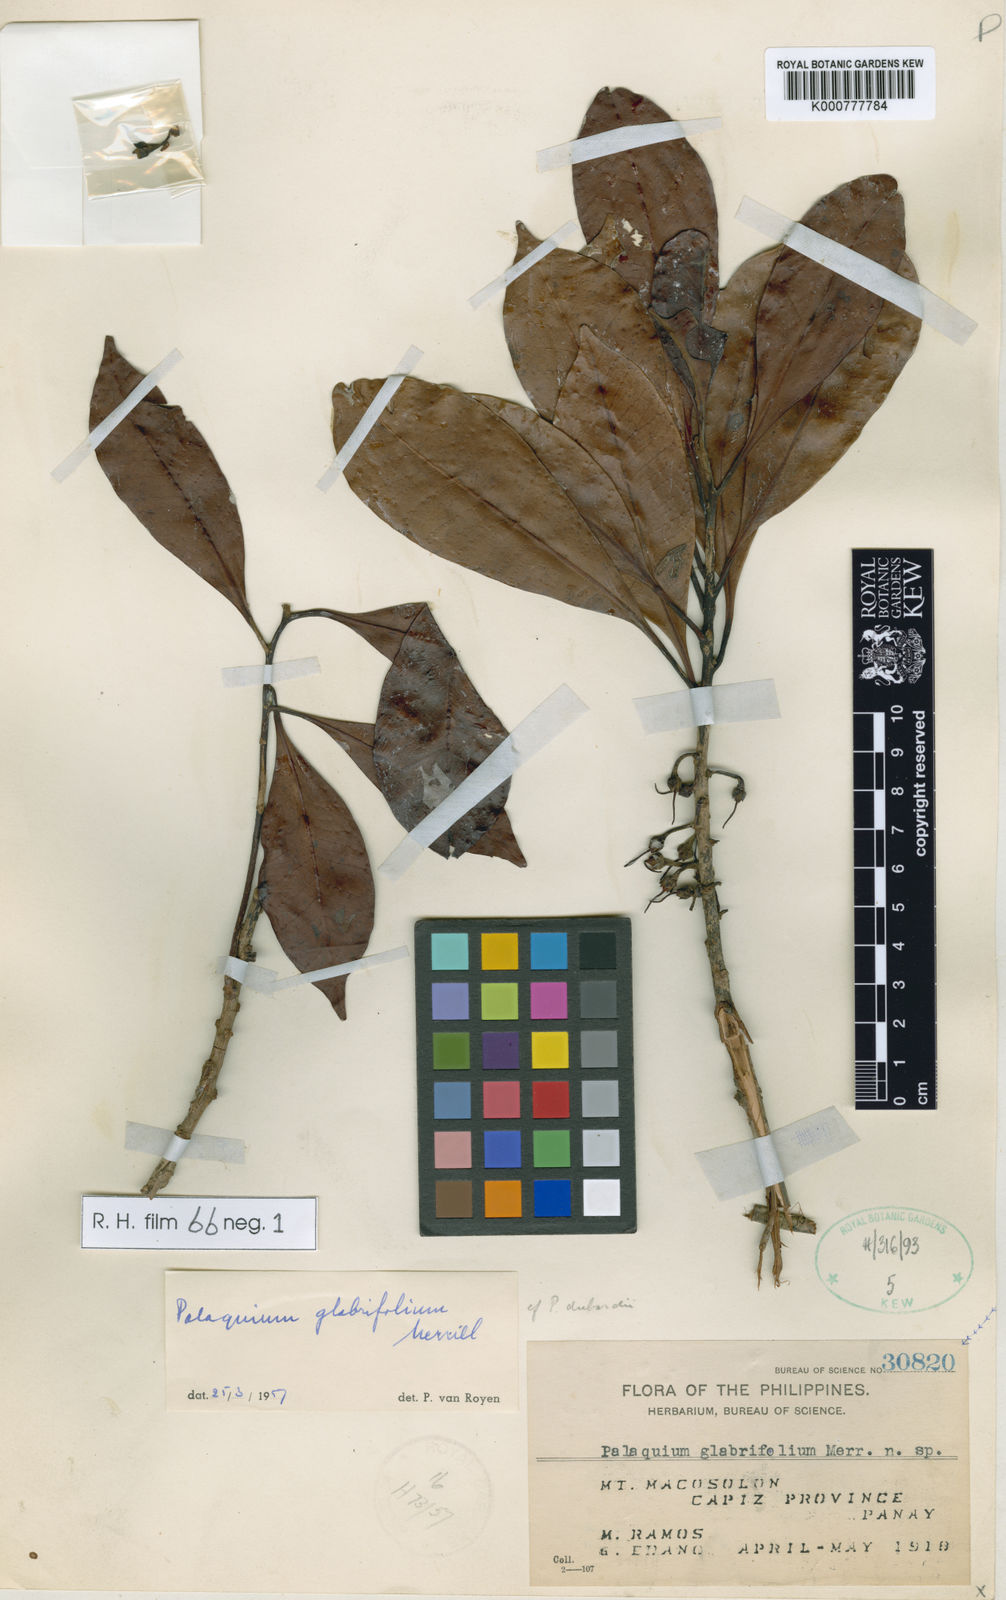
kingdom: Plantae
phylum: Tracheophyta
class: Magnoliopsida
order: Ericales
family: Sapotaceae
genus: Palaquium
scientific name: Palaquium glabrifolium
